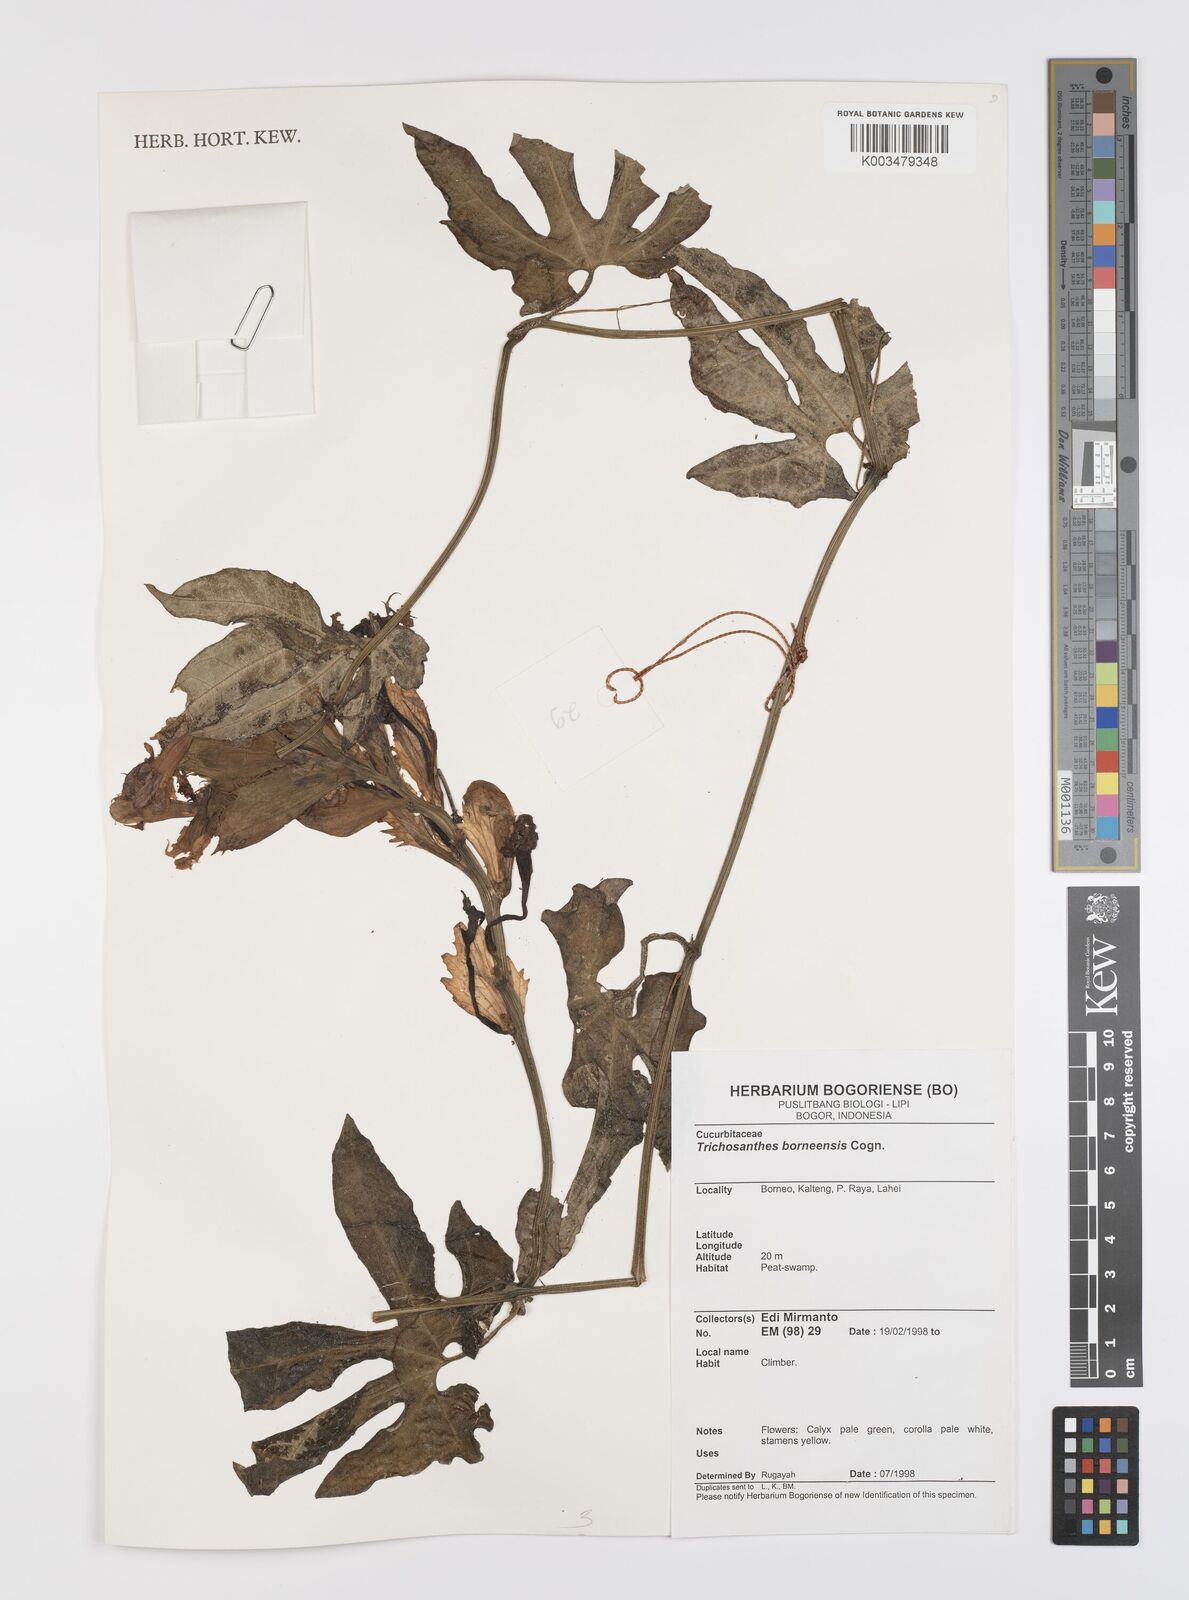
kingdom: Plantae
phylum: Tracheophyta
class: Magnoliopsida
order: Cucurbitales
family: Cucurbitaceae
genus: Trichosanthes
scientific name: Trichosanthes borneensis
